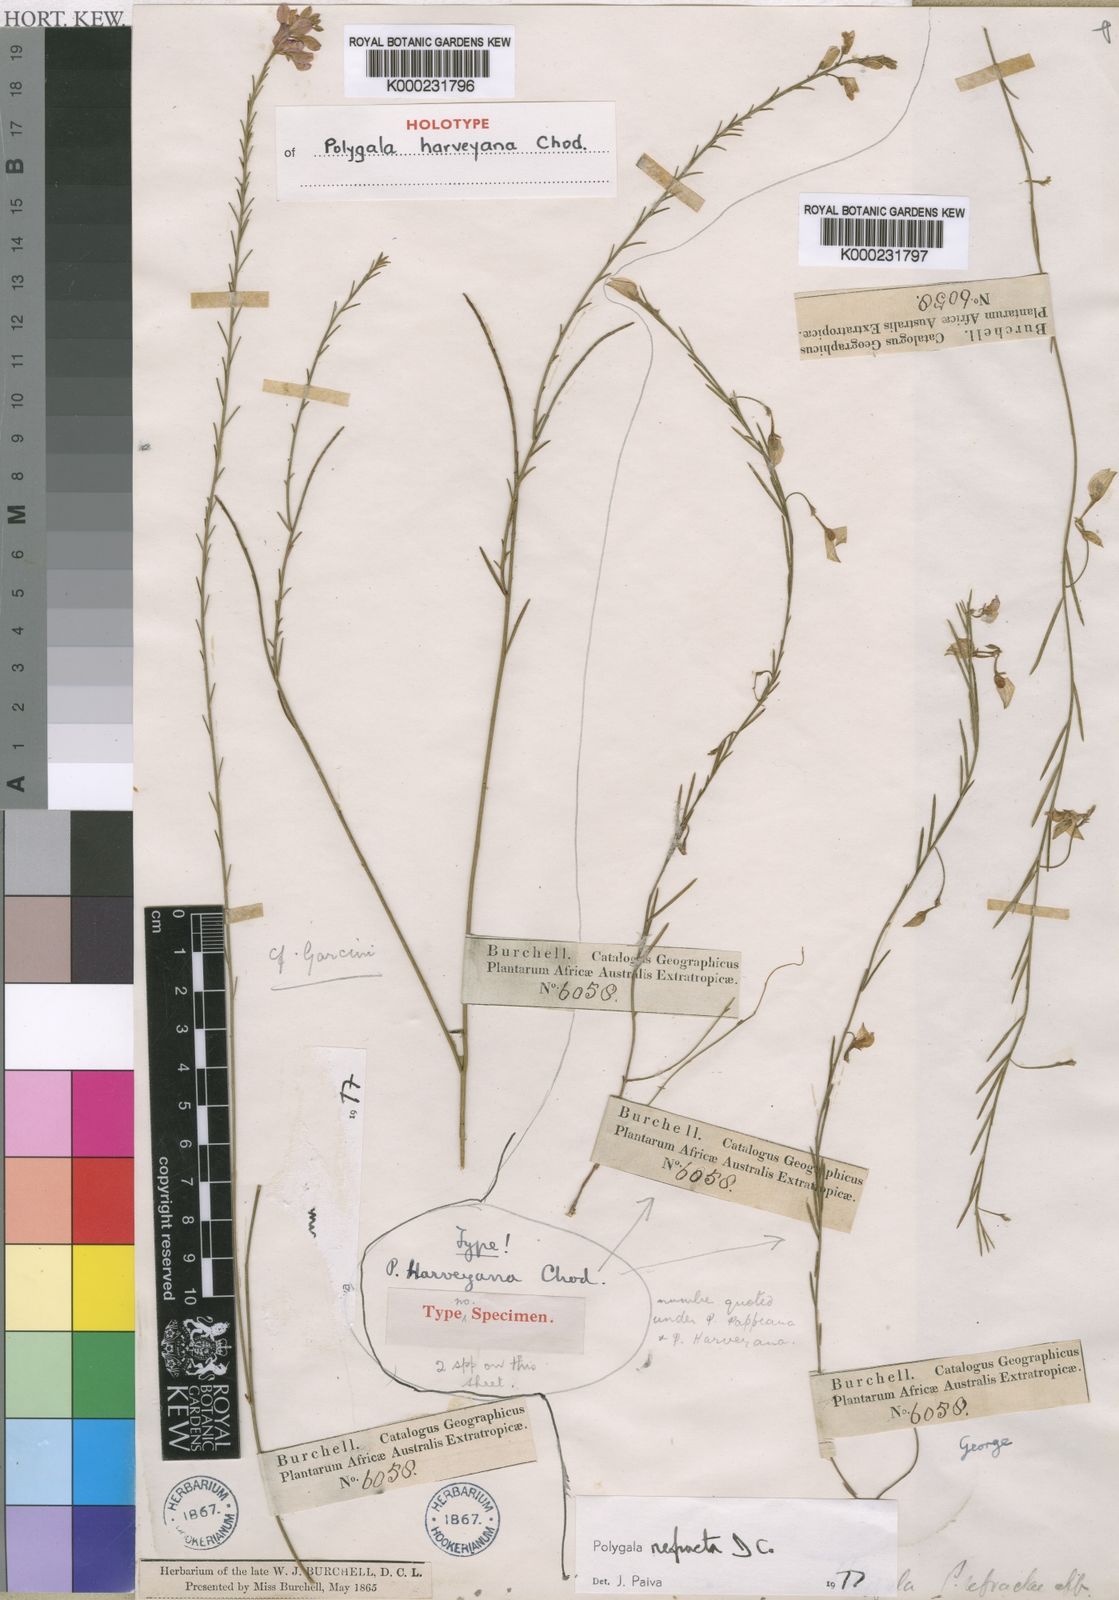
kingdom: Plantae
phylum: Tracheophyta
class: Magnoliopsida
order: Fabales
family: Polygalaceae
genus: Polygala
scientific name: Polygala refracta
